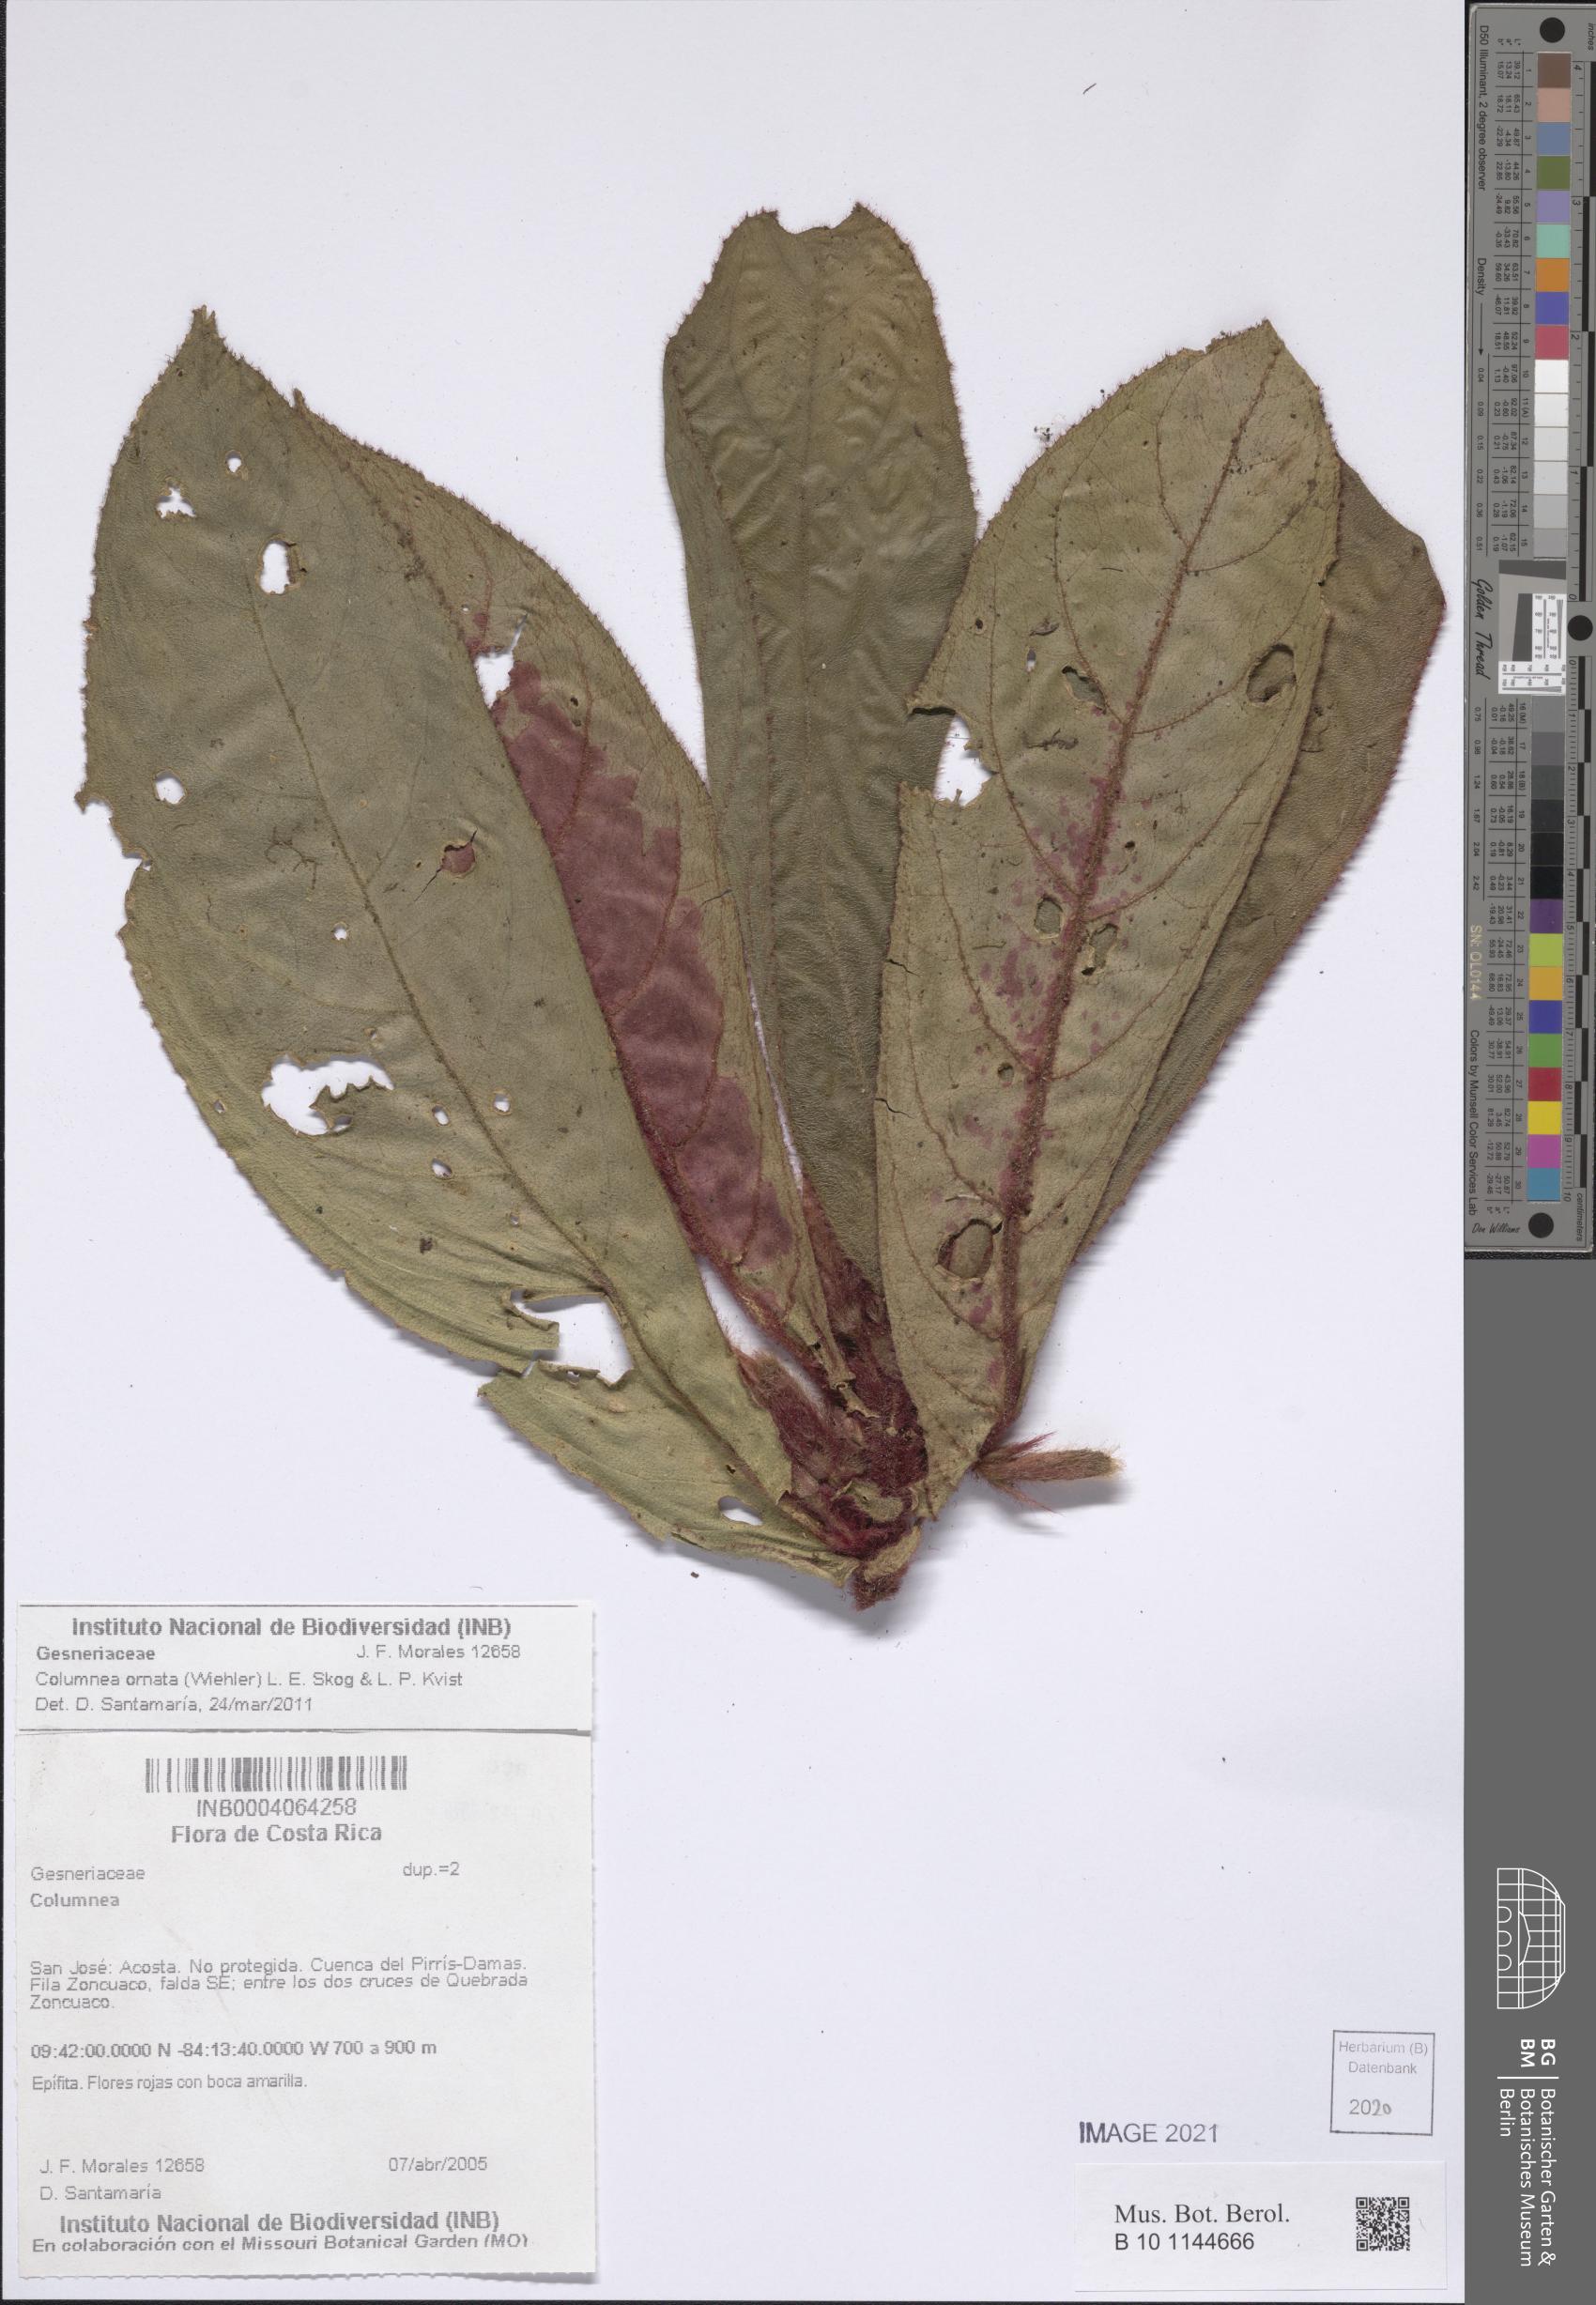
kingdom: Plantae
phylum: Tracheophyta
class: Magnoliopsida
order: Lamiales
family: Gesneriaceae
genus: Columnea
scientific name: Columnea
